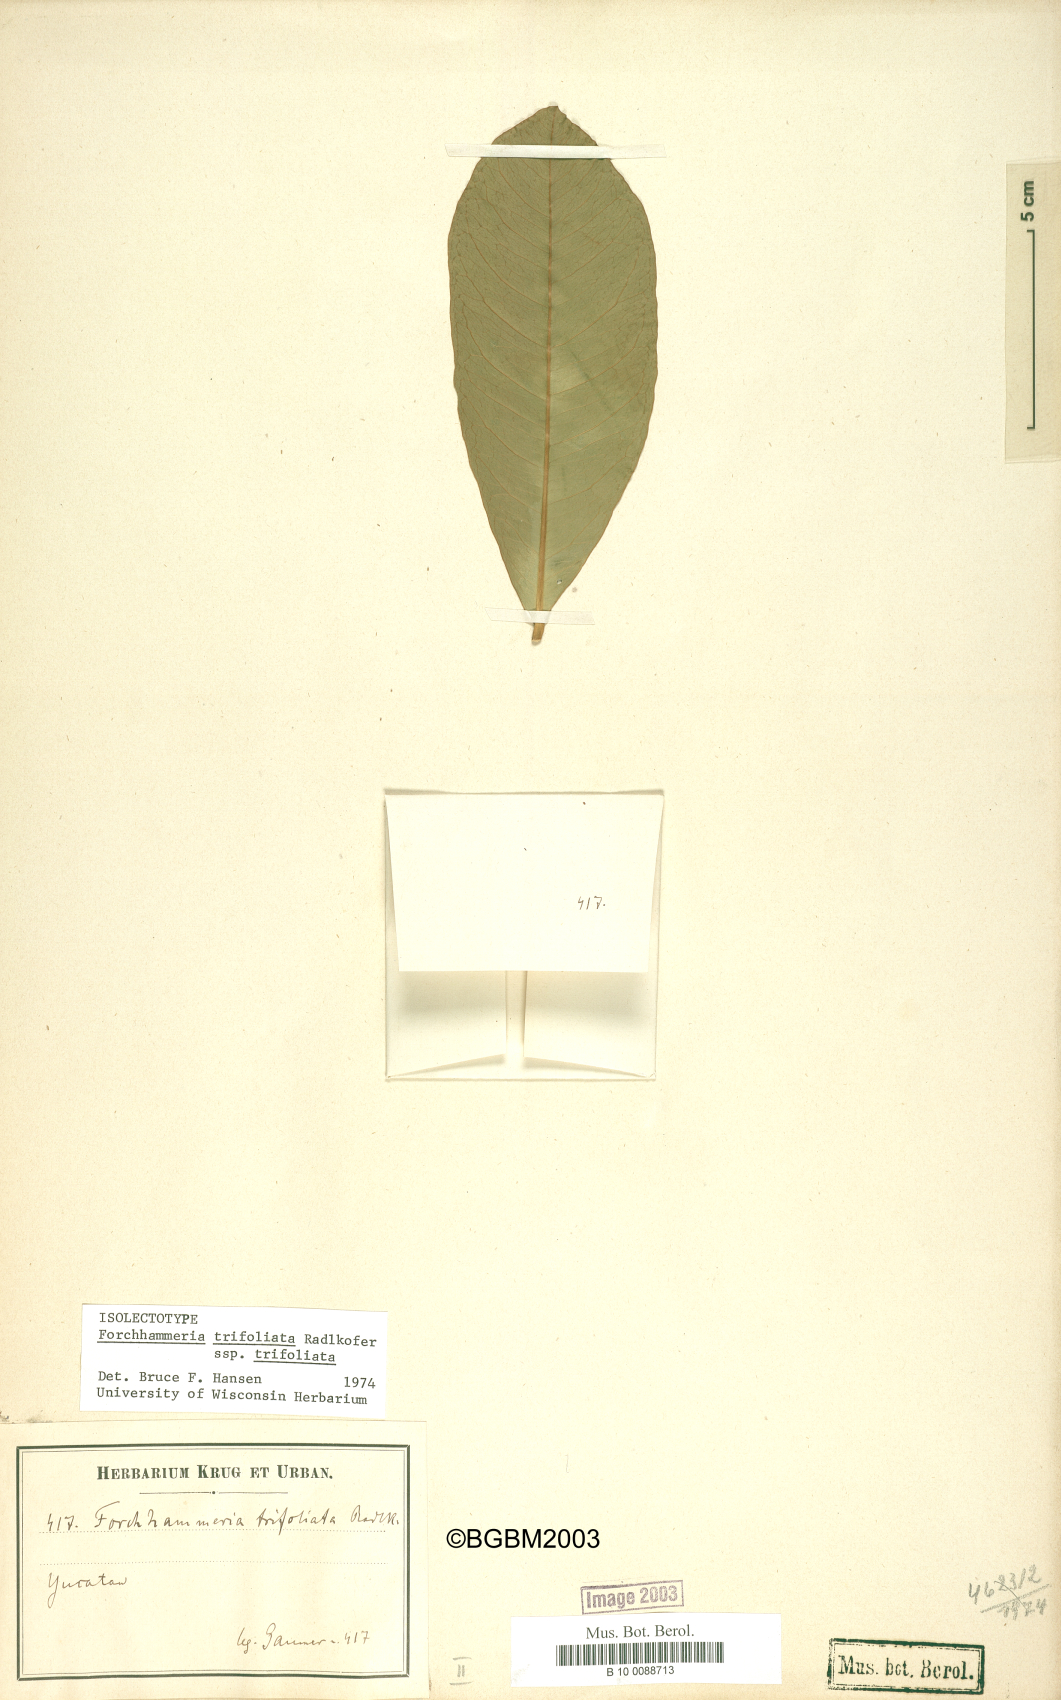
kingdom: Plantae
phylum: Tracheophyta
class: Magnoliopsida
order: Brassicales
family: Stixaceae
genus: Forchhammeria
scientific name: Forchhammeria trifoliata
